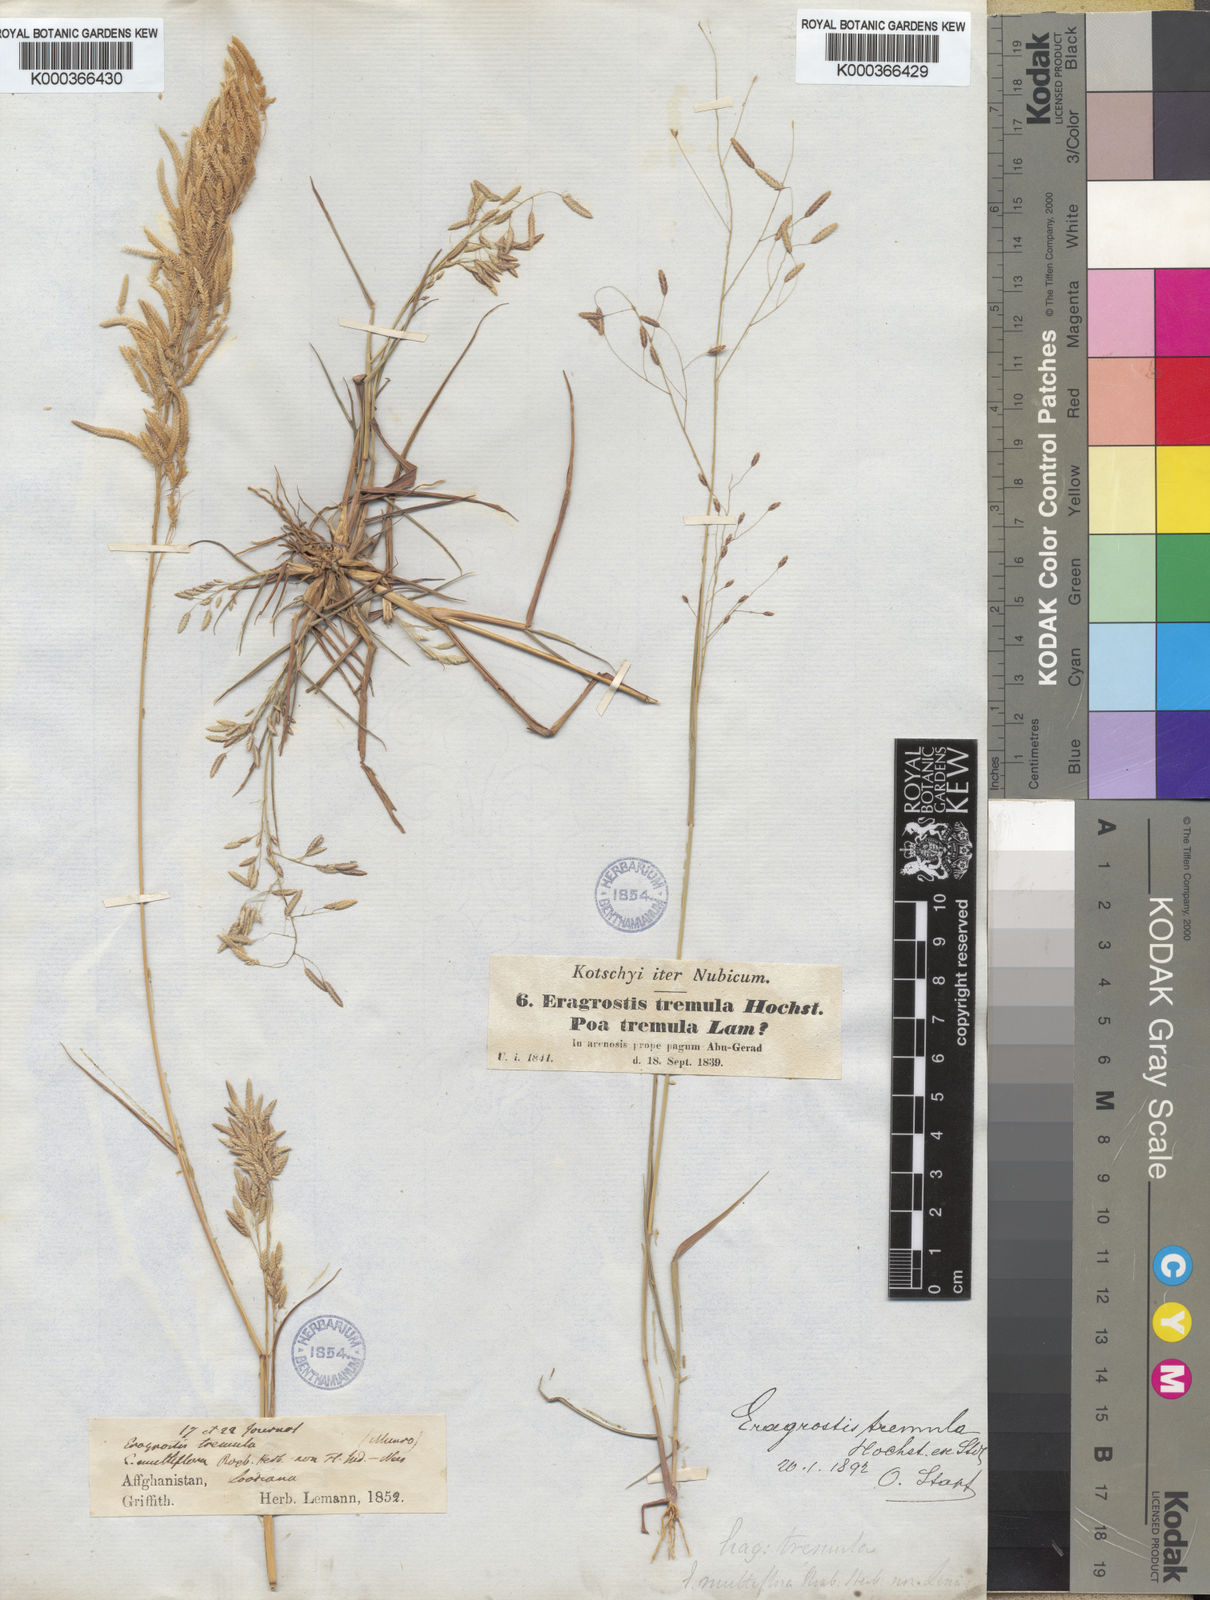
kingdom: Plantae
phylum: Tracheophyta
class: Liliopsida
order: Poales
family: Poaceae
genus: Eragrostis
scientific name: Eragrostis
